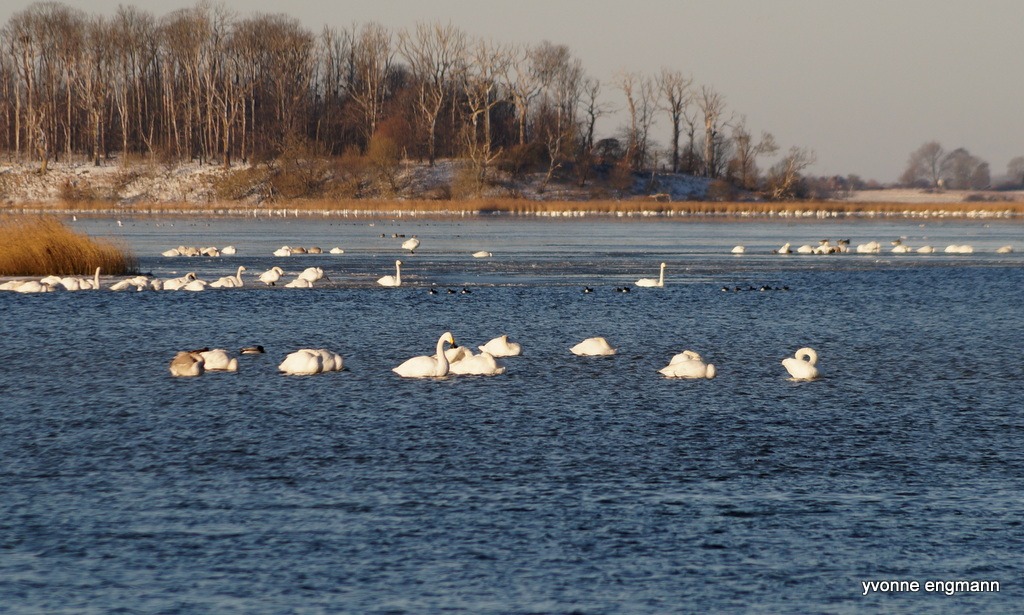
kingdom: Animalia
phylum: Chordata
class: Aves
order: Anseriformes
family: Anatidae
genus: Cygnus
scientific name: Cygnus cygnus
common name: Sangsvane
